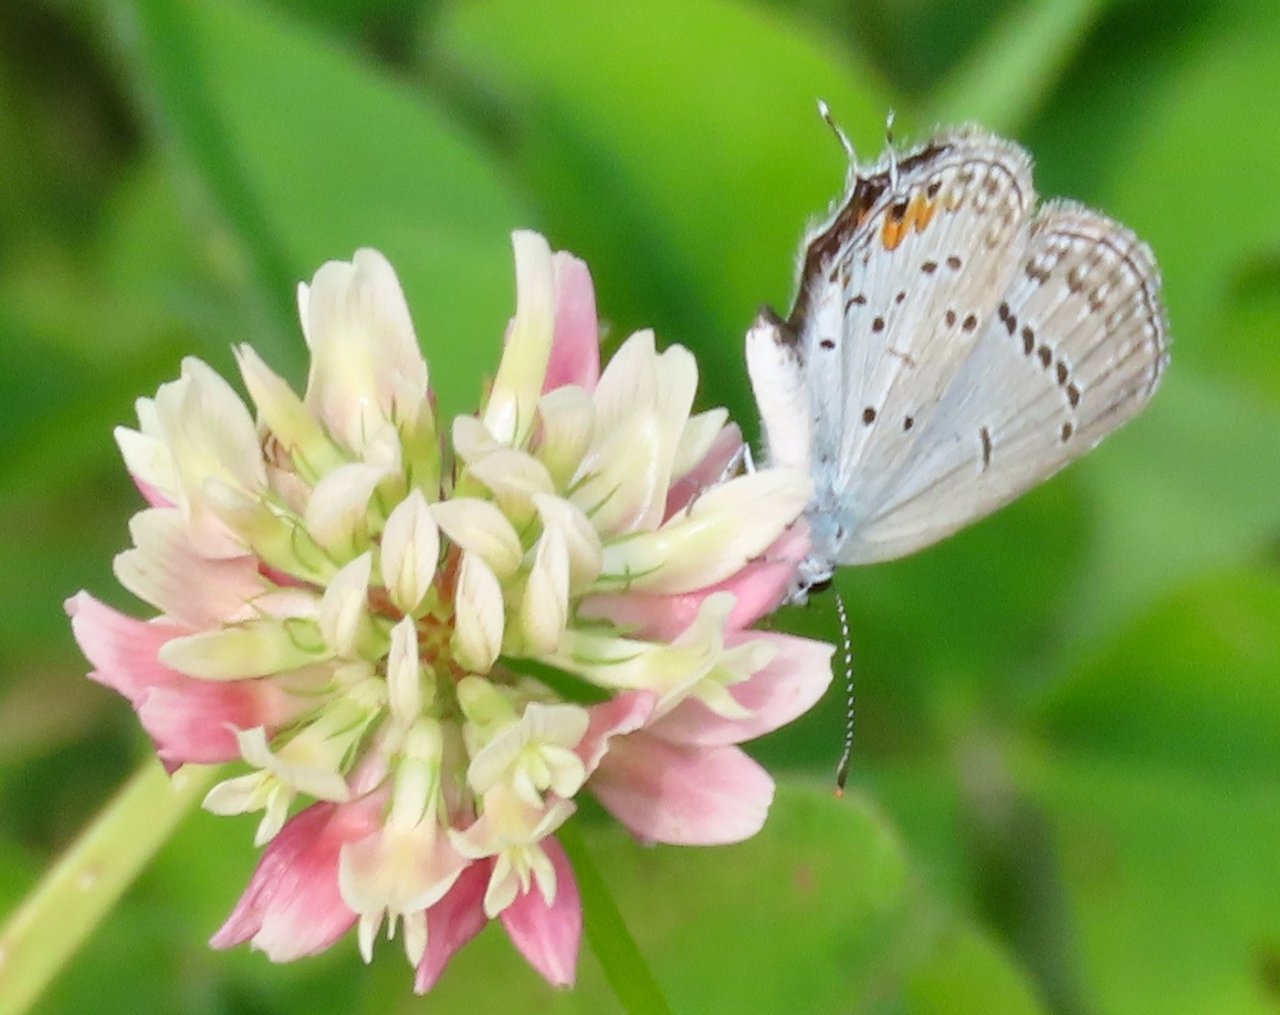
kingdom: Animalia
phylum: Arthropoda
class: Insecta
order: Lepidoptera
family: Lycaenidae
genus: Elkalyce
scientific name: Elkalyce comyntas
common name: Eastern Tailed-Blue
